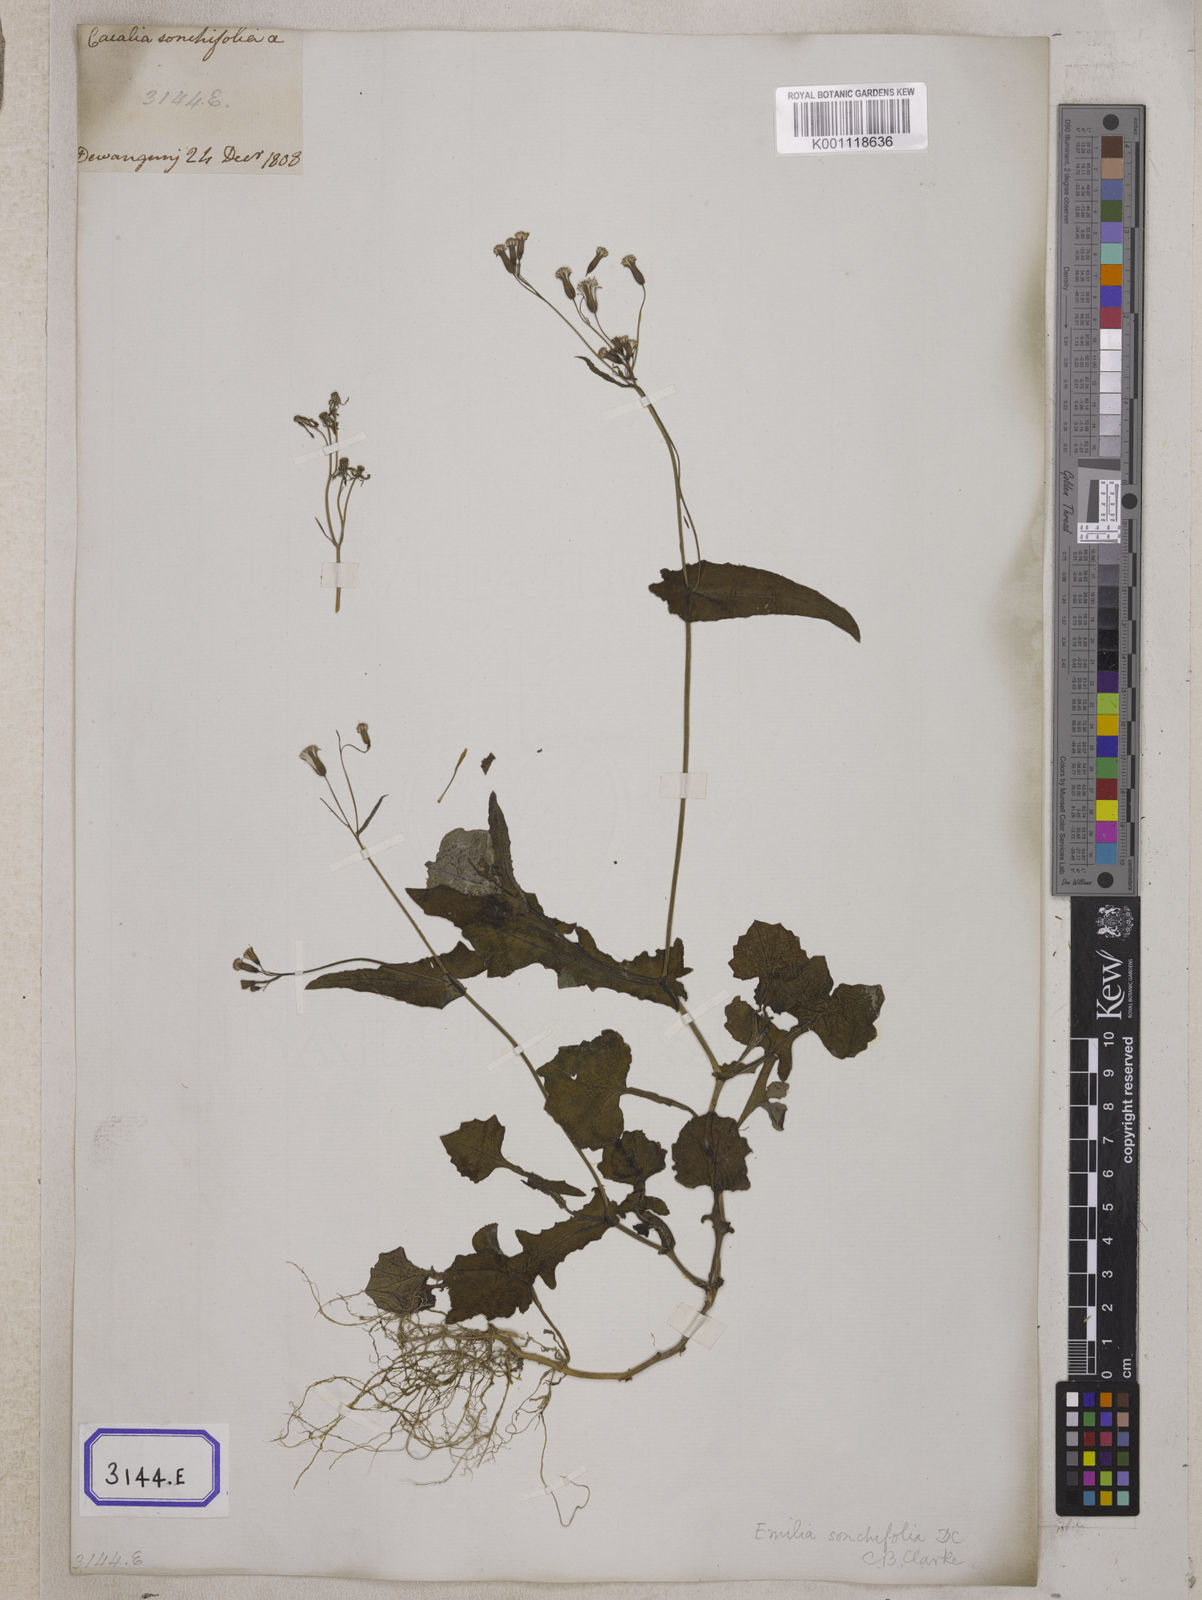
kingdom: Plantae
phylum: Tracheophyta
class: Magnoliopsida
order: Asterales
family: Asteraceae
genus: Launaea
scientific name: Launaea remotiflora
